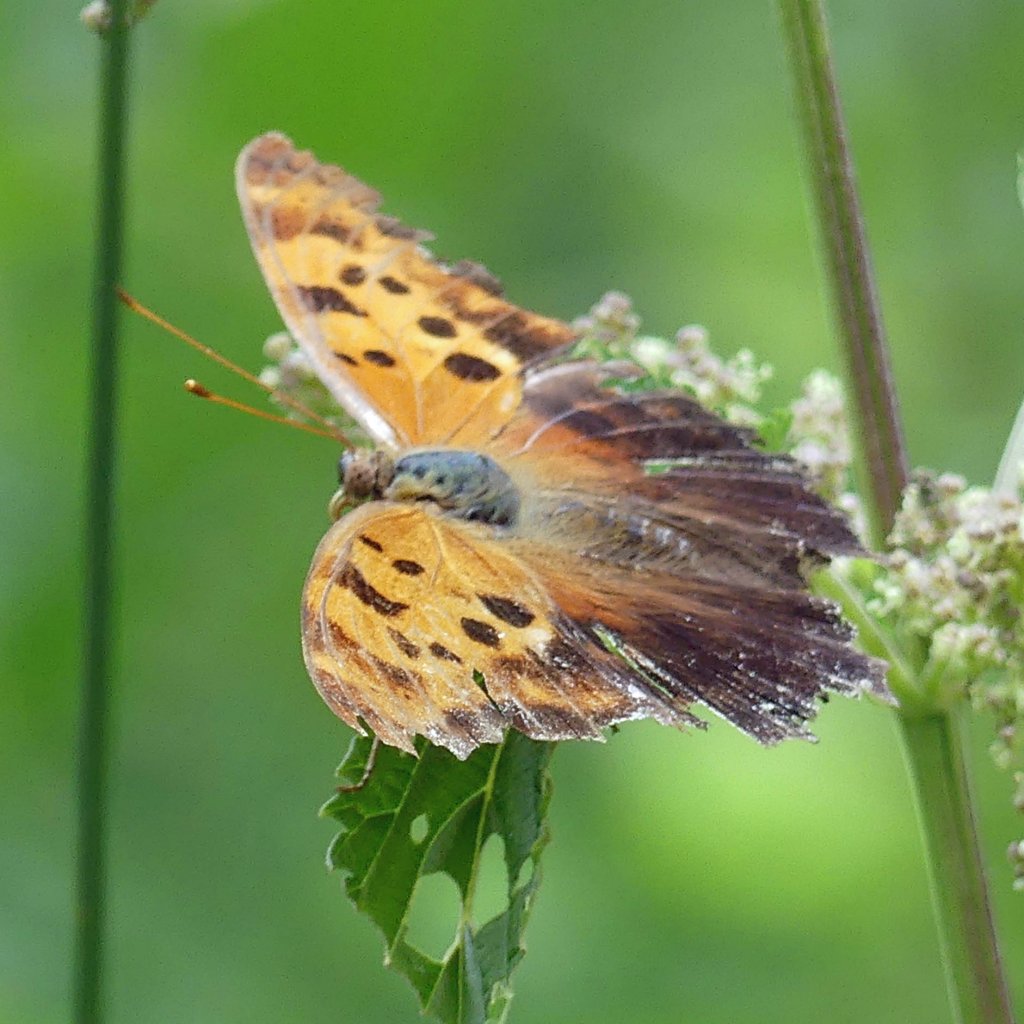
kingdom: Animalia
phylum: Arthropoda
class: Insecta
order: Lepidoptera
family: Nymphalidae
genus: Polygonia
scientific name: Polygonia interrogationis
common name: Question Mark
